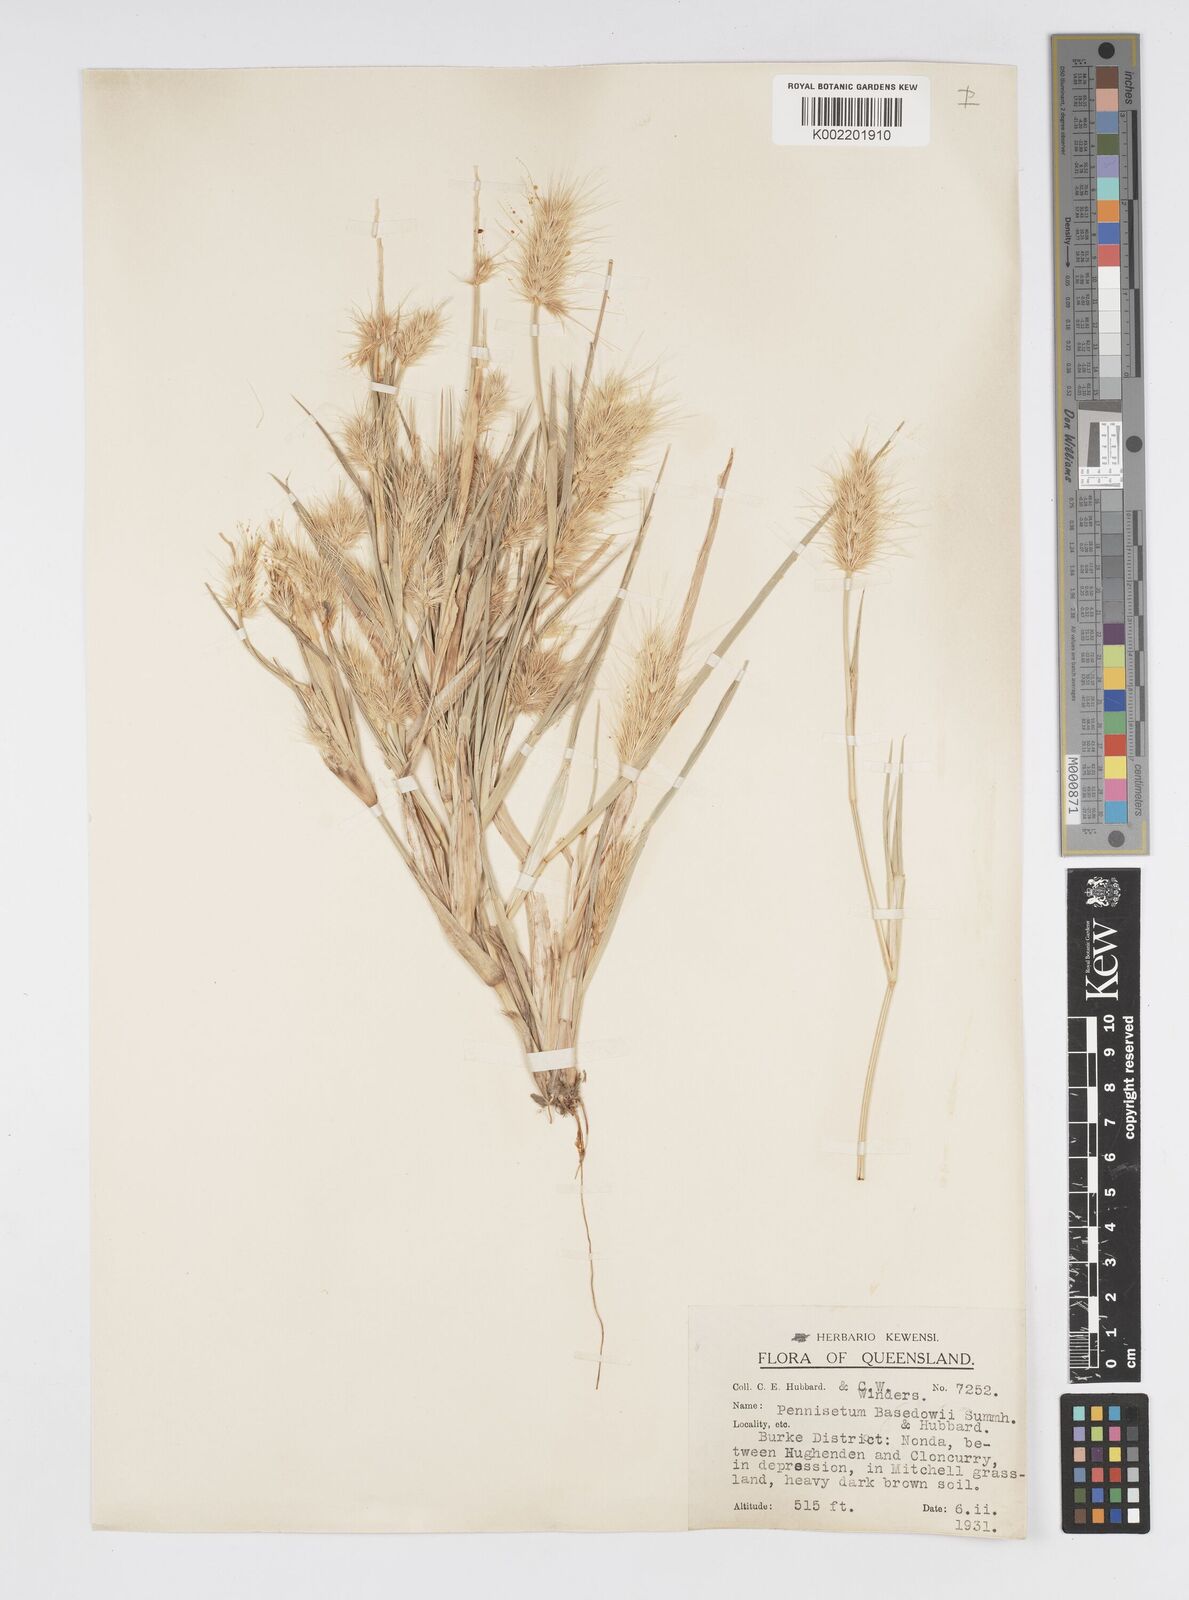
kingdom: Plantae
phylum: Tracheophyta
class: Liliopsida
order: Poales
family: Poaceae
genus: Cenchrus
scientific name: Cenchrus basedowii
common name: Asbestos grass
